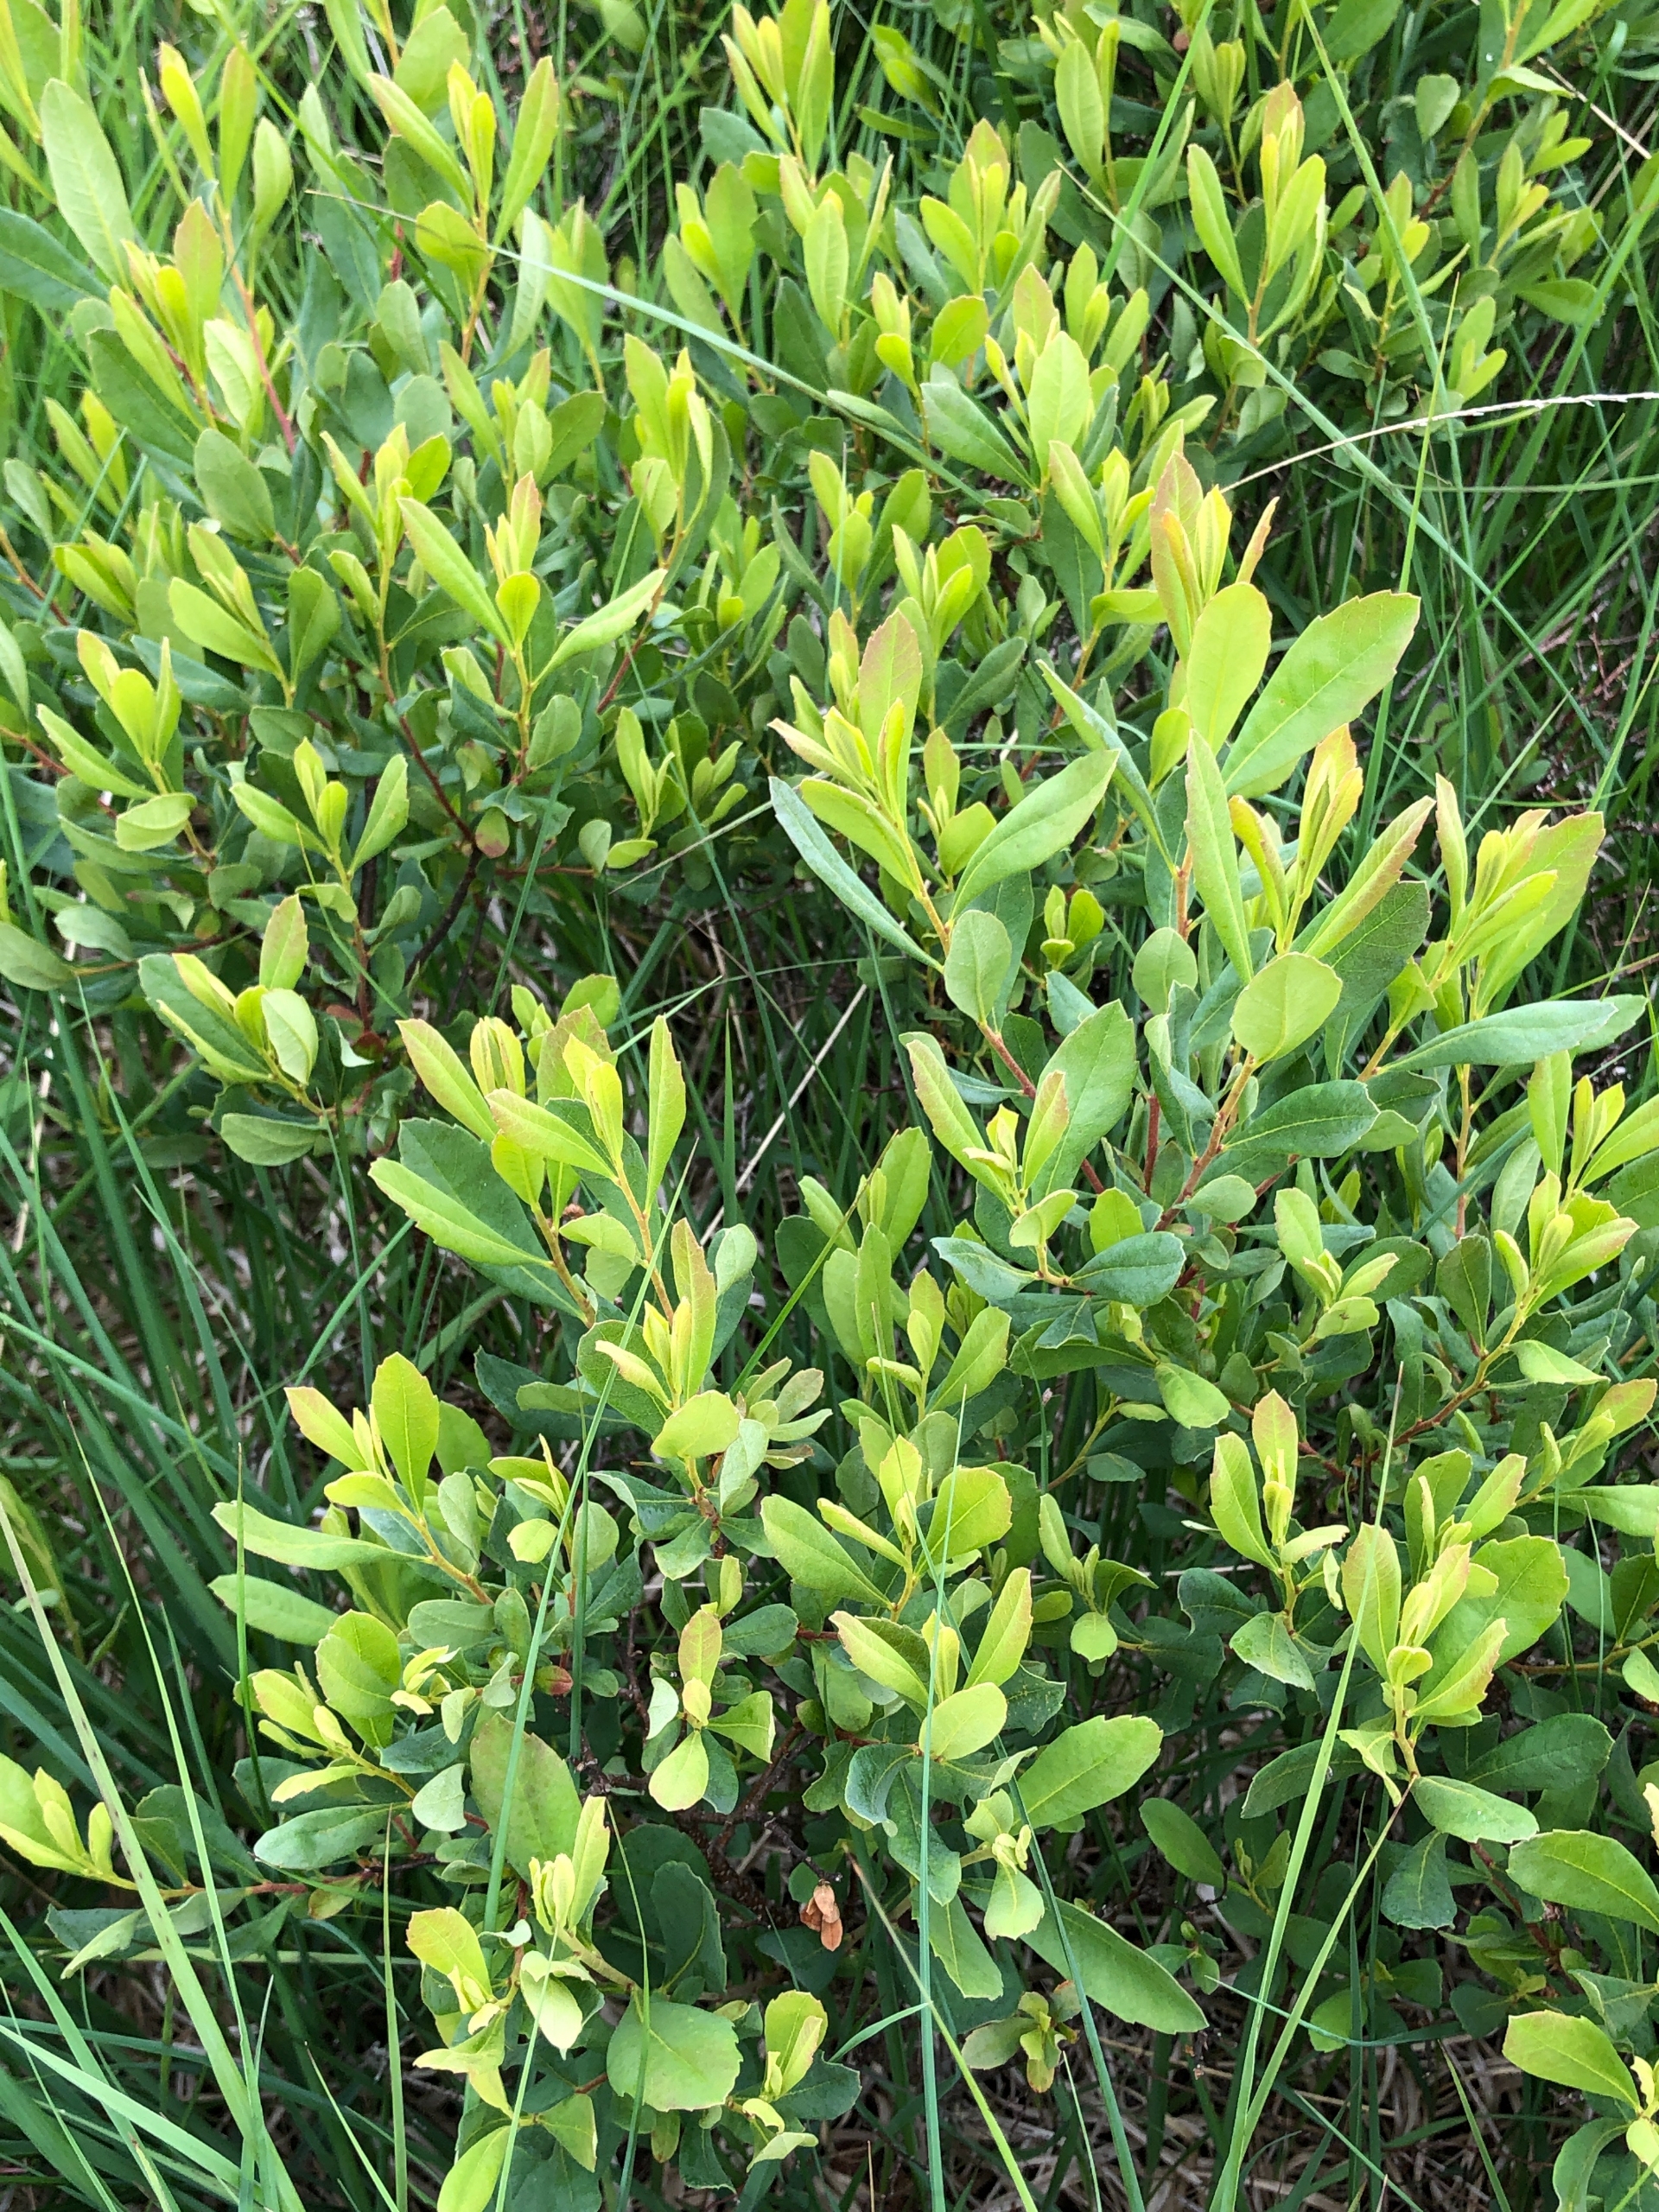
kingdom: Plantae
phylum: Tracheophyta
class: Magnoliopsida
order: Fagales
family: Myricaceae
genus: Myrica
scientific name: Myrica gale
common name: Pors
